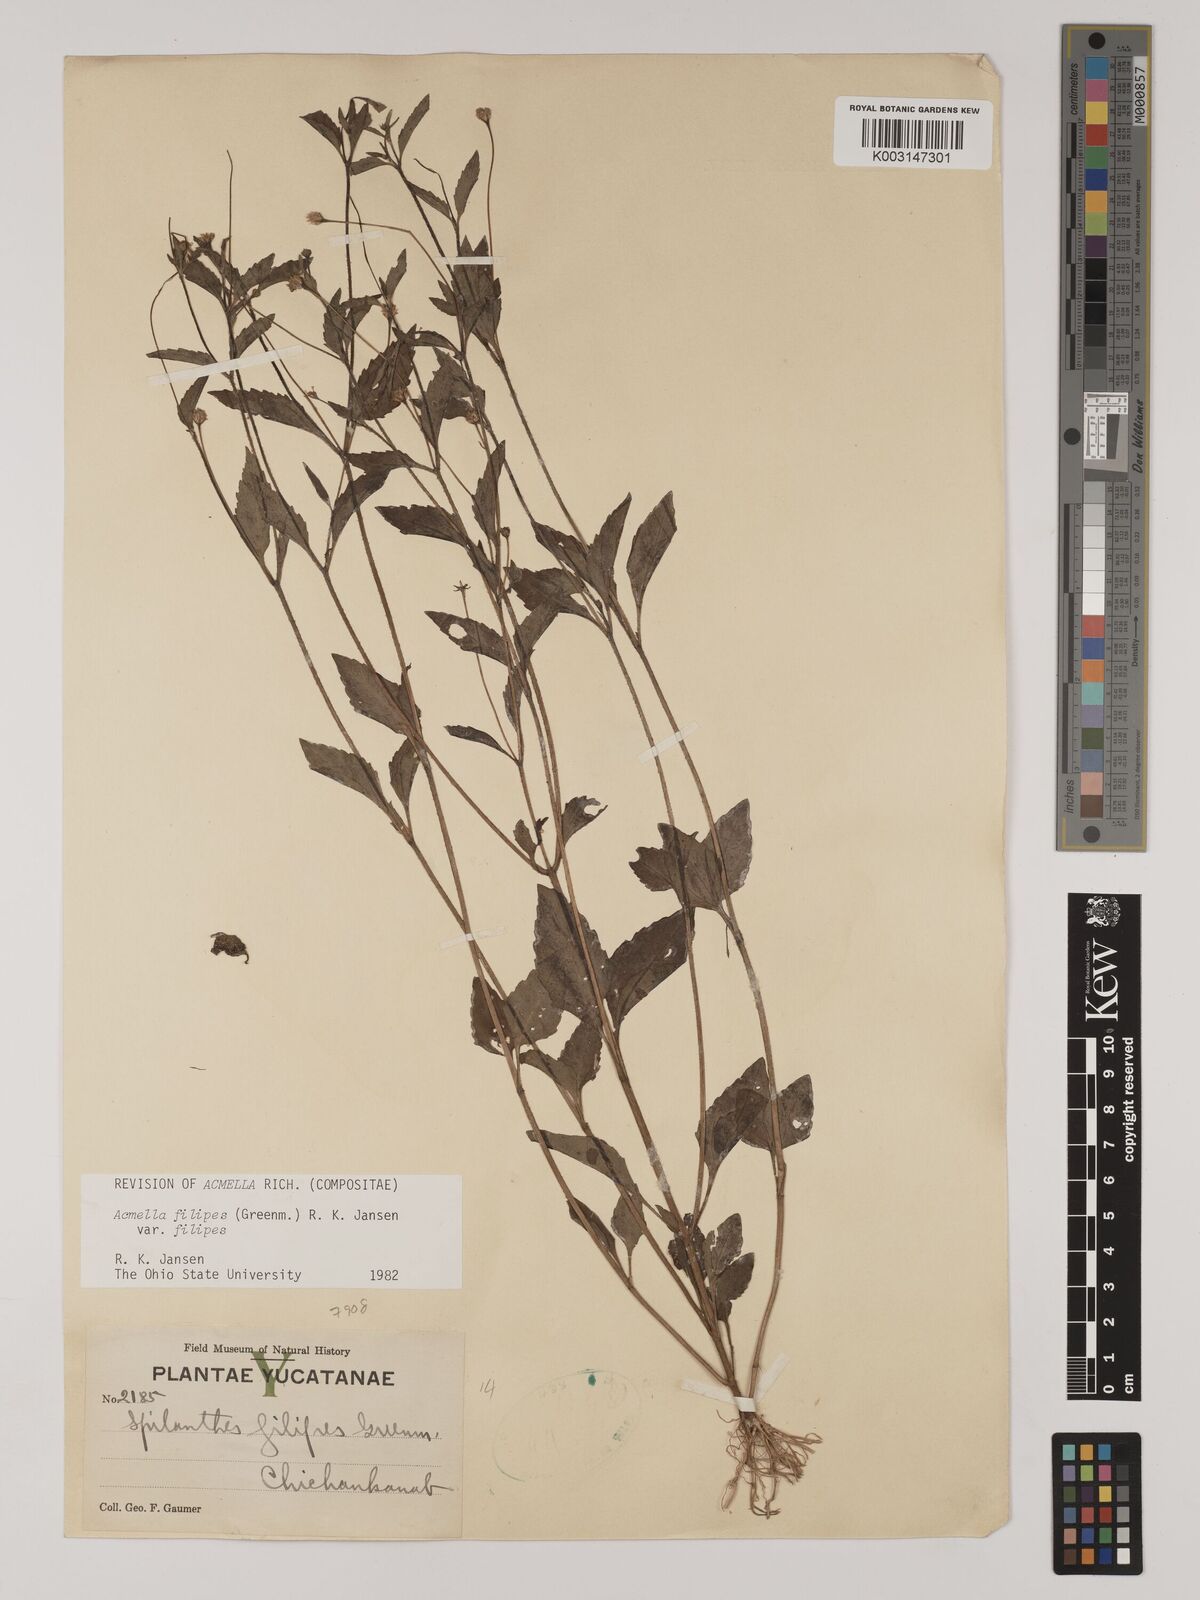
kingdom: Plantae
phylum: Tracheophyta
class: Magnoliopsida
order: Asterales
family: Asteraceae
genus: Acmella
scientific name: Acmella filipes
